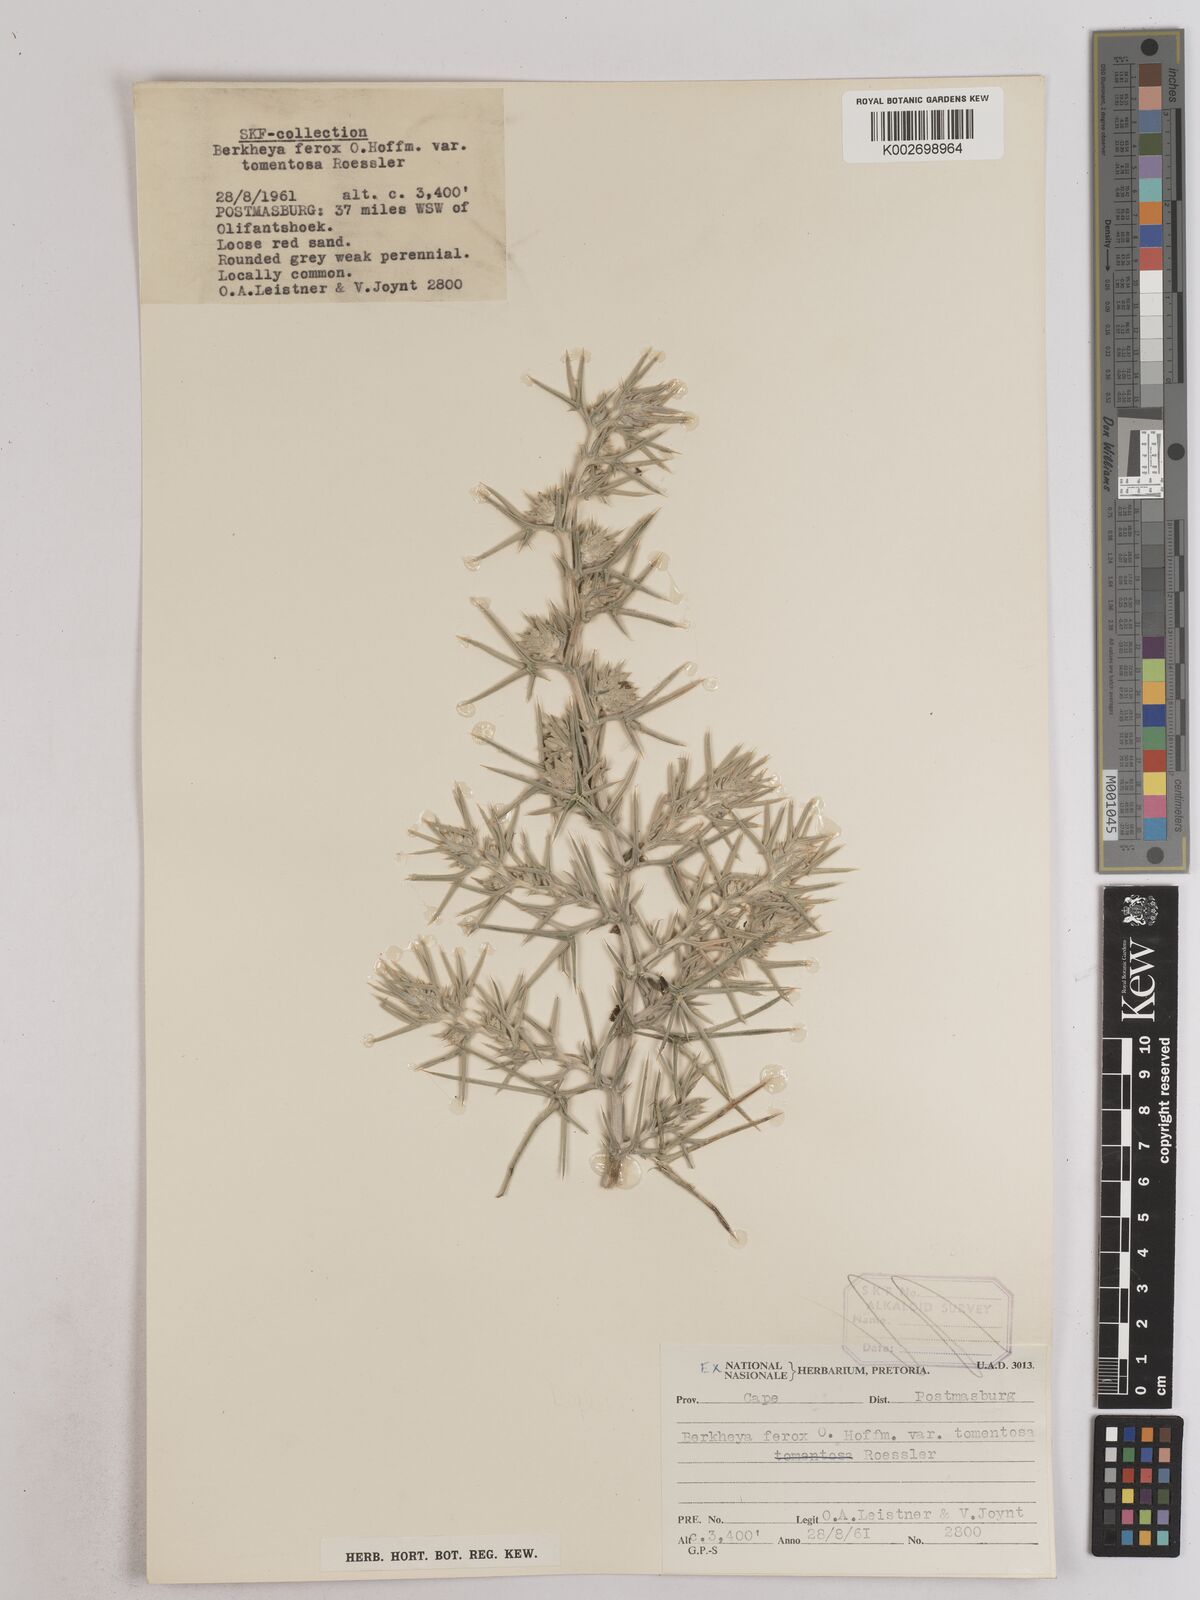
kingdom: Plantae
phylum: Tracheophyta
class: Magnoliopsida
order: Asterales
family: Asteraceae
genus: Berkheya
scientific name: Berkheya ferox
